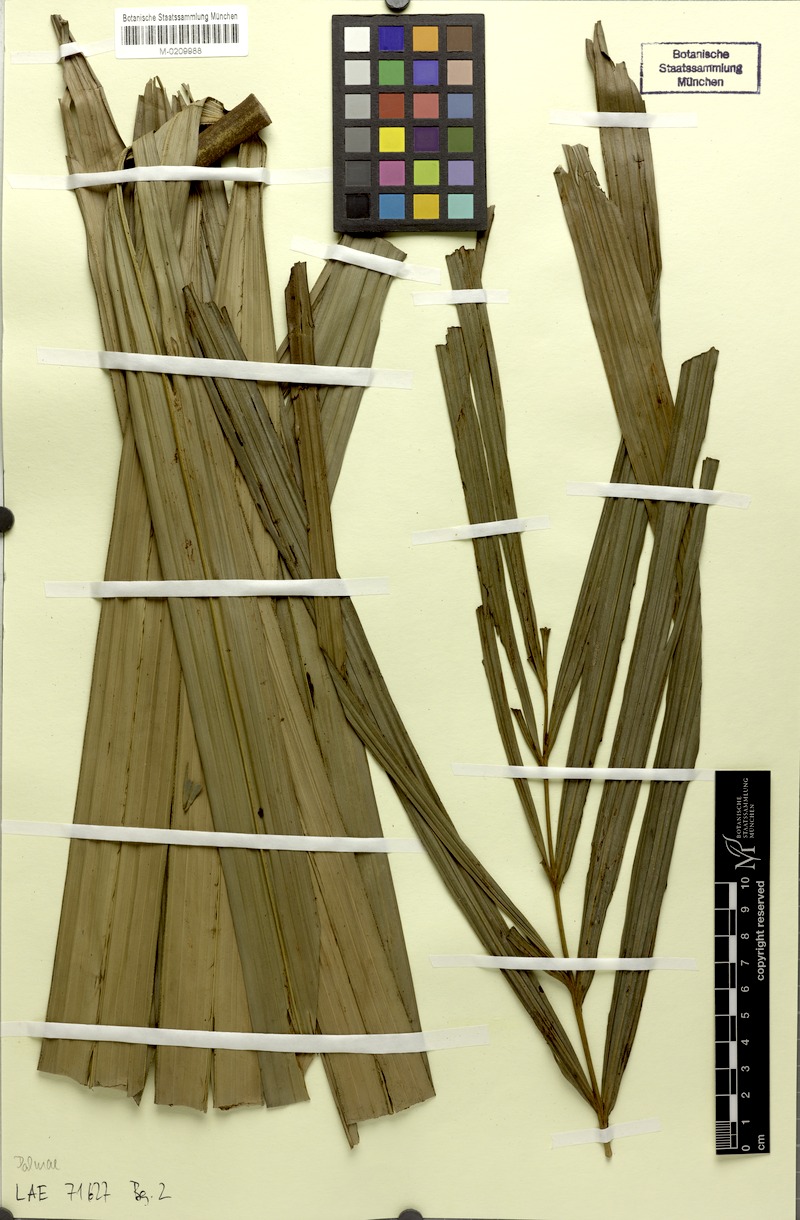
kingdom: Plantae
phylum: Tracheophyta
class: Liliopsida
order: Arecales
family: Arecaceae
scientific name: Arecaceae
